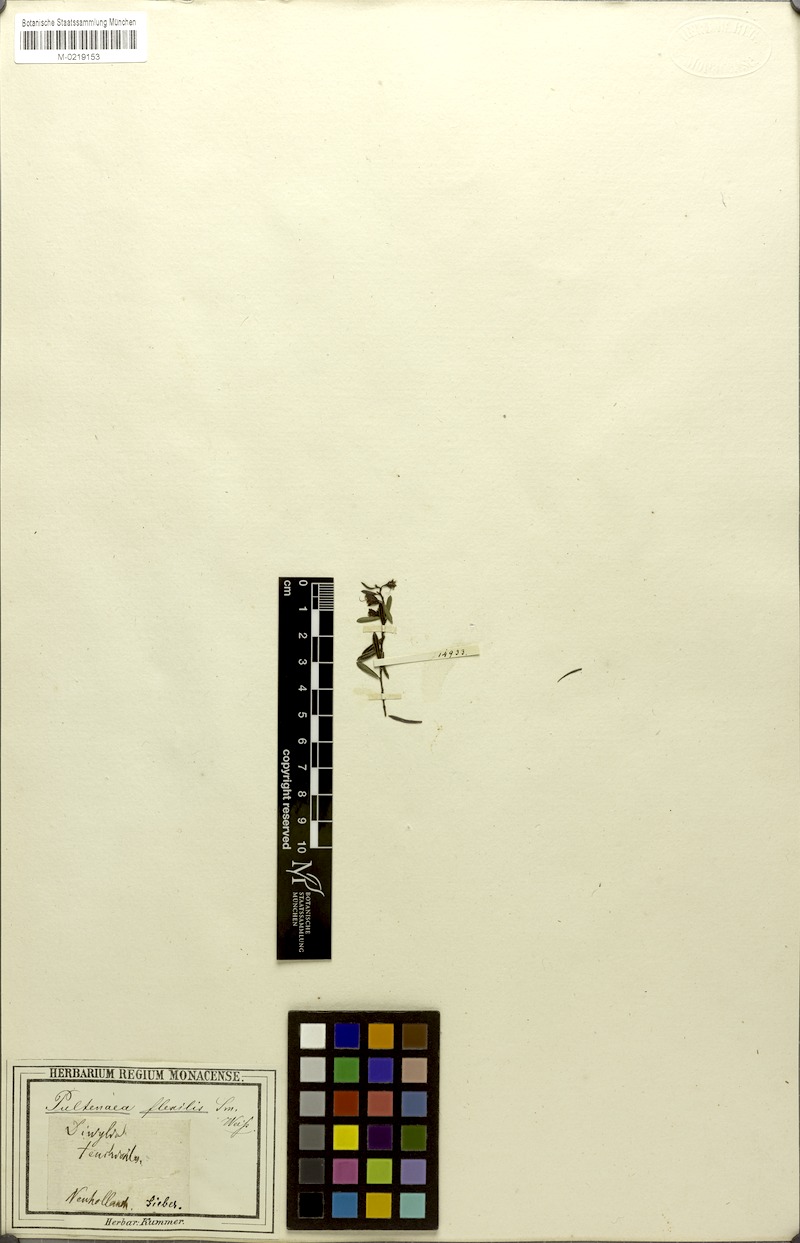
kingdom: Plantae
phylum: Tracheophyta
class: Magnoliopsida
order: Fabales
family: Fabaceae
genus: Pultenaea
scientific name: Pultenaea flexilis
